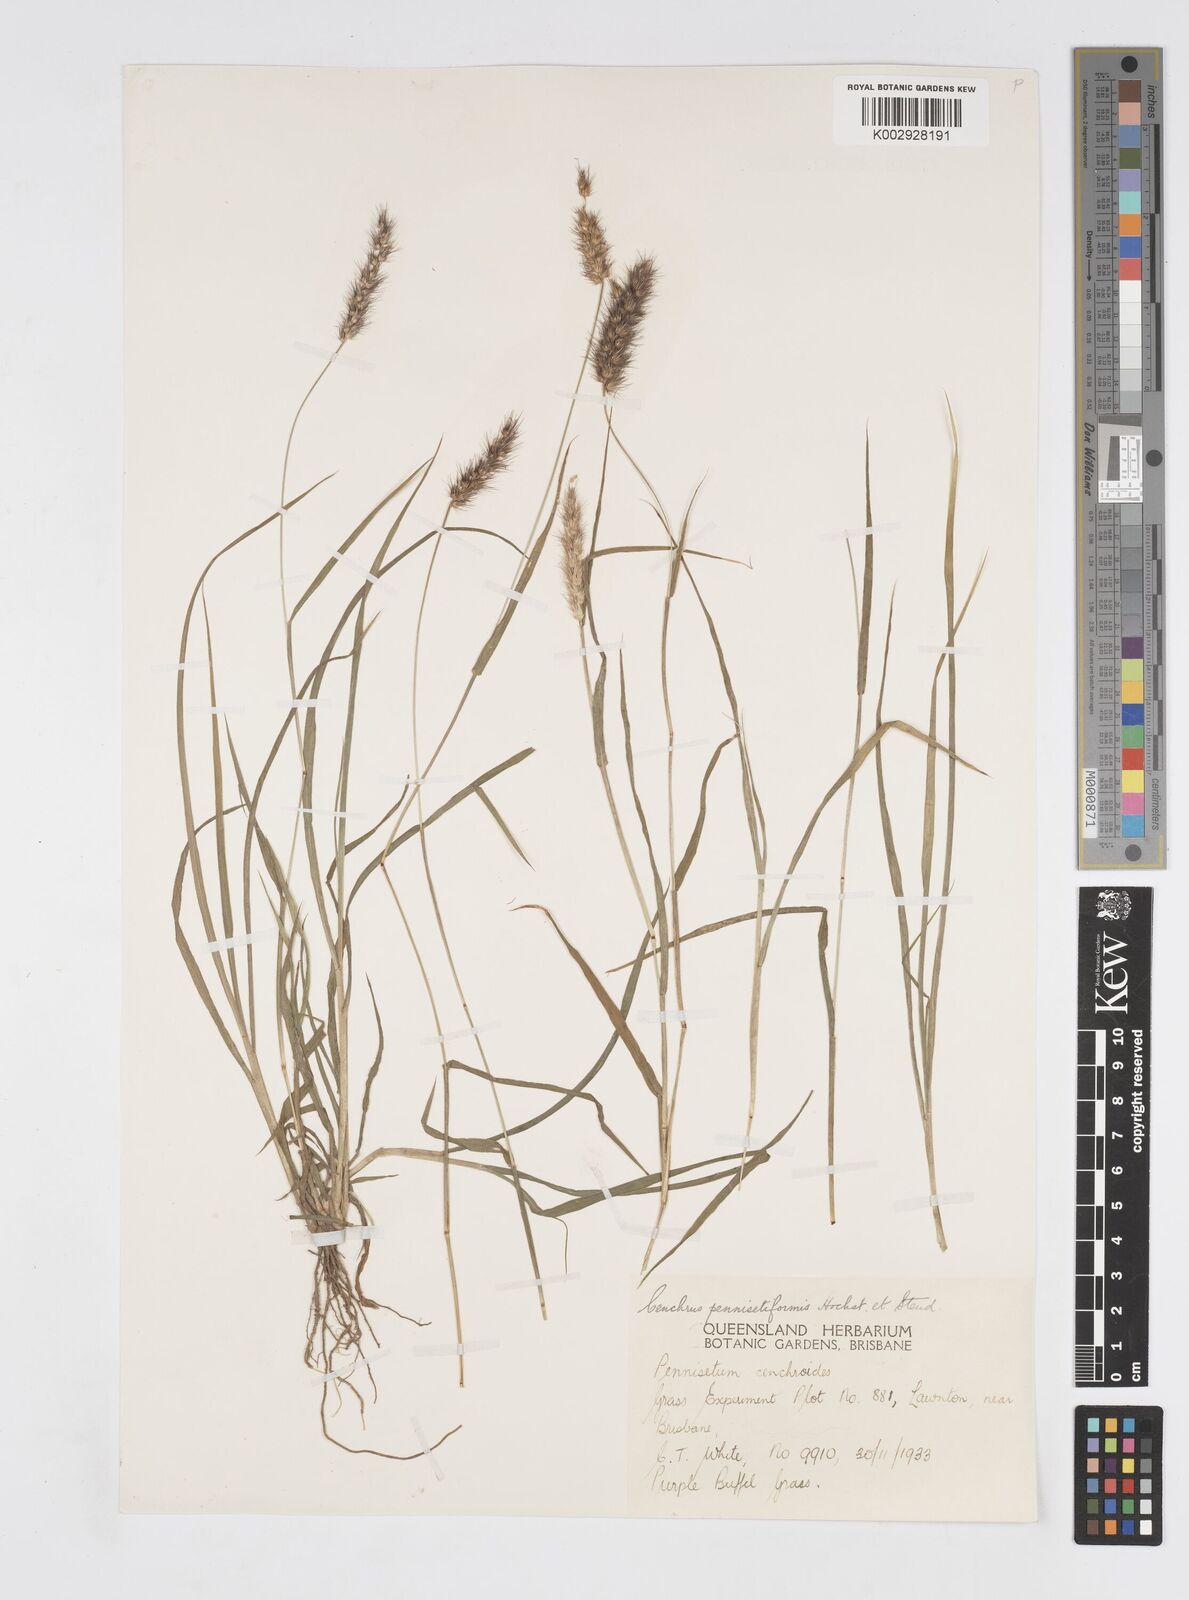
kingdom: Plantae
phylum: Tracheophyta
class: Liliopsida
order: Poales
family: Poaceae
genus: Cenchrus
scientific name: Cenchrus pennisetiformis
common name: Cloncurry
